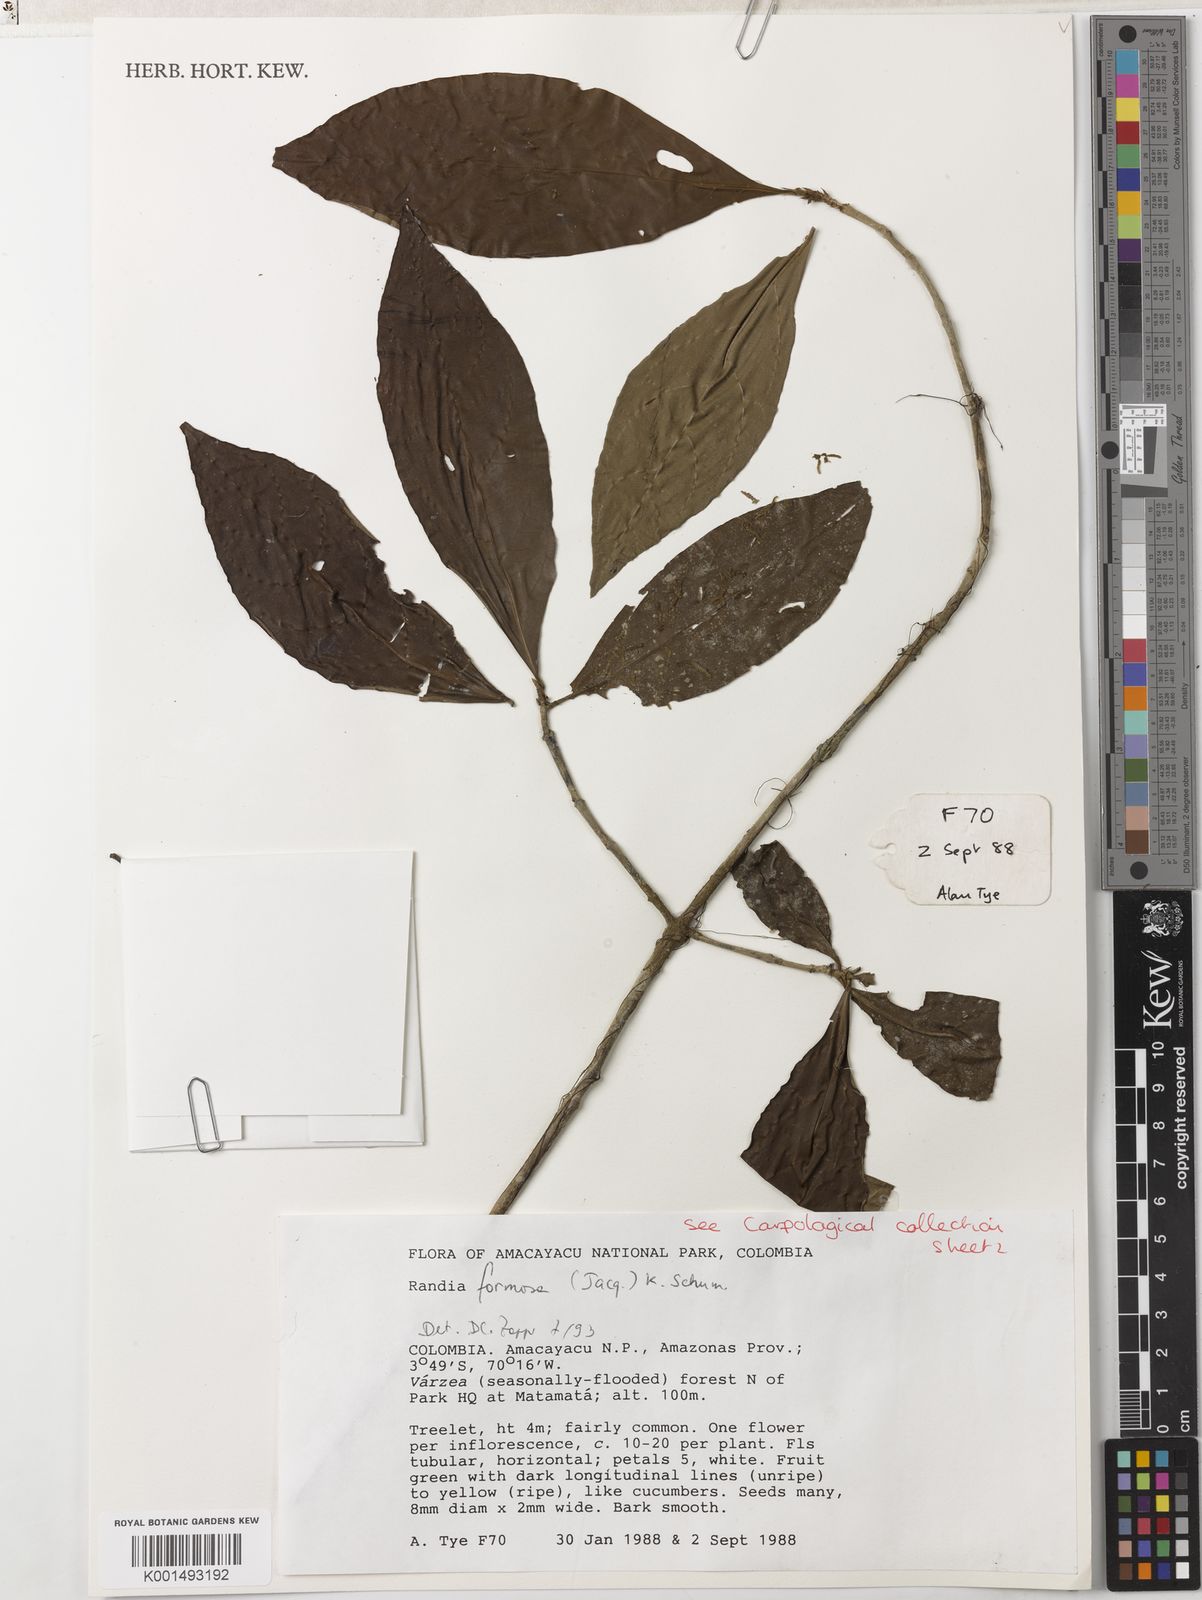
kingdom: Plantae
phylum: Tracheophyta
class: Magnoliopsida
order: Gentianales
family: Rubiaceae
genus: Rosenbergiodendron
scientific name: Rosenbergiodendron formosum
